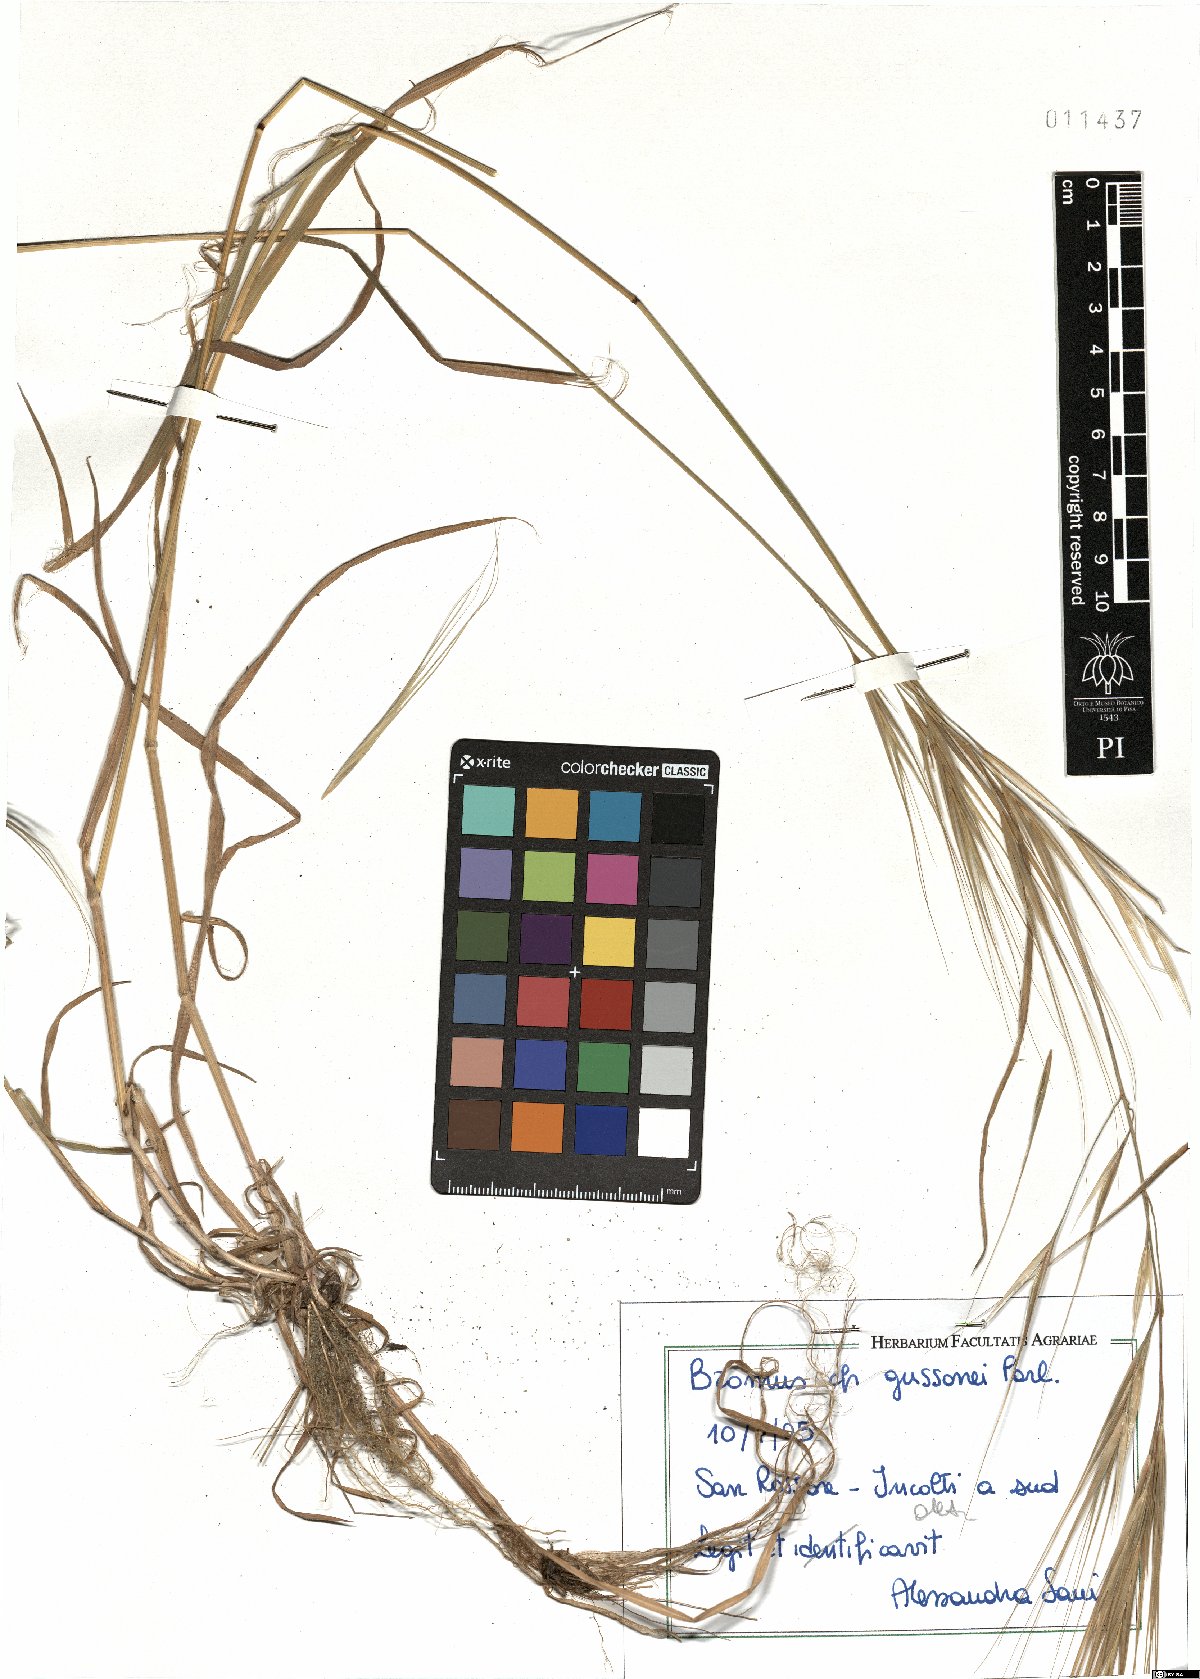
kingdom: Plantae
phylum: Tracheophyta
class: Liliopsida
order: Poales
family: Poaceae
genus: Bromus
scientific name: Bromus diandrus
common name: Ripgut brome
